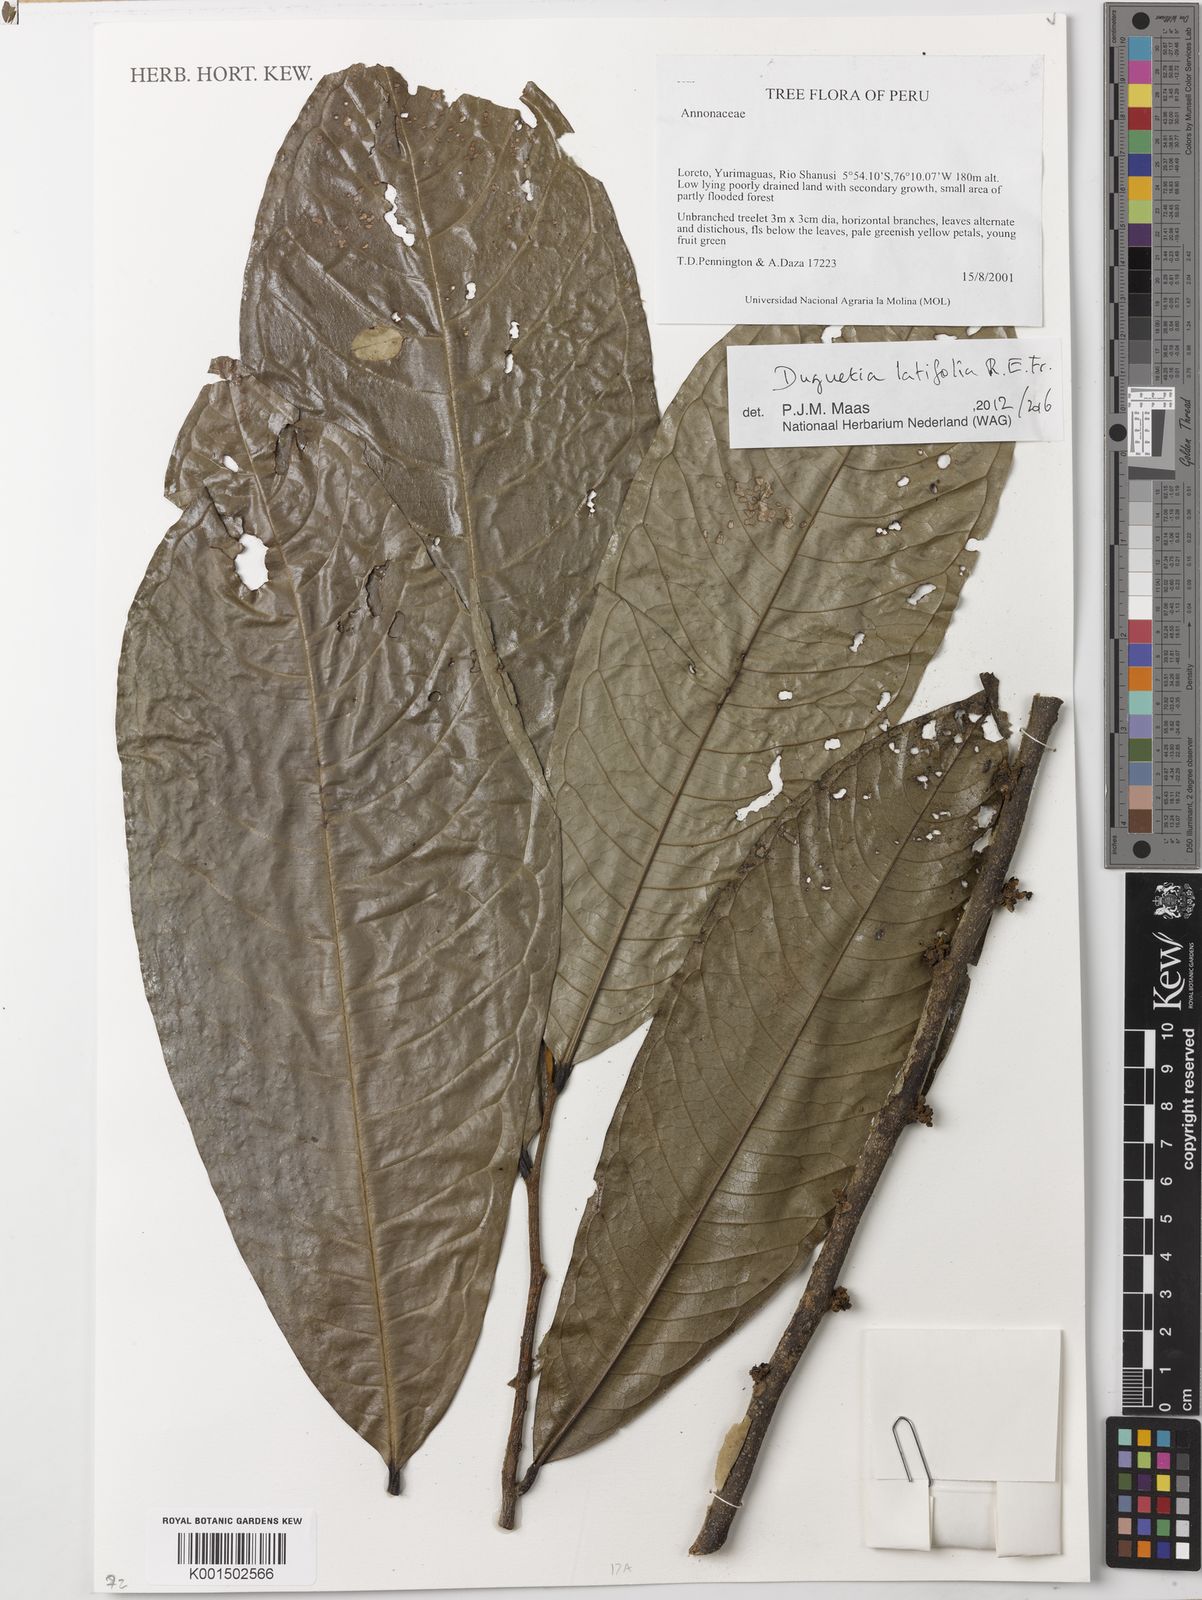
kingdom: Plantae
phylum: Tracheophyta
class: Magnoliopsida
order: Magnoliales
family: Annonaceae
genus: Duguetia
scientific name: Duguetia latifolia
